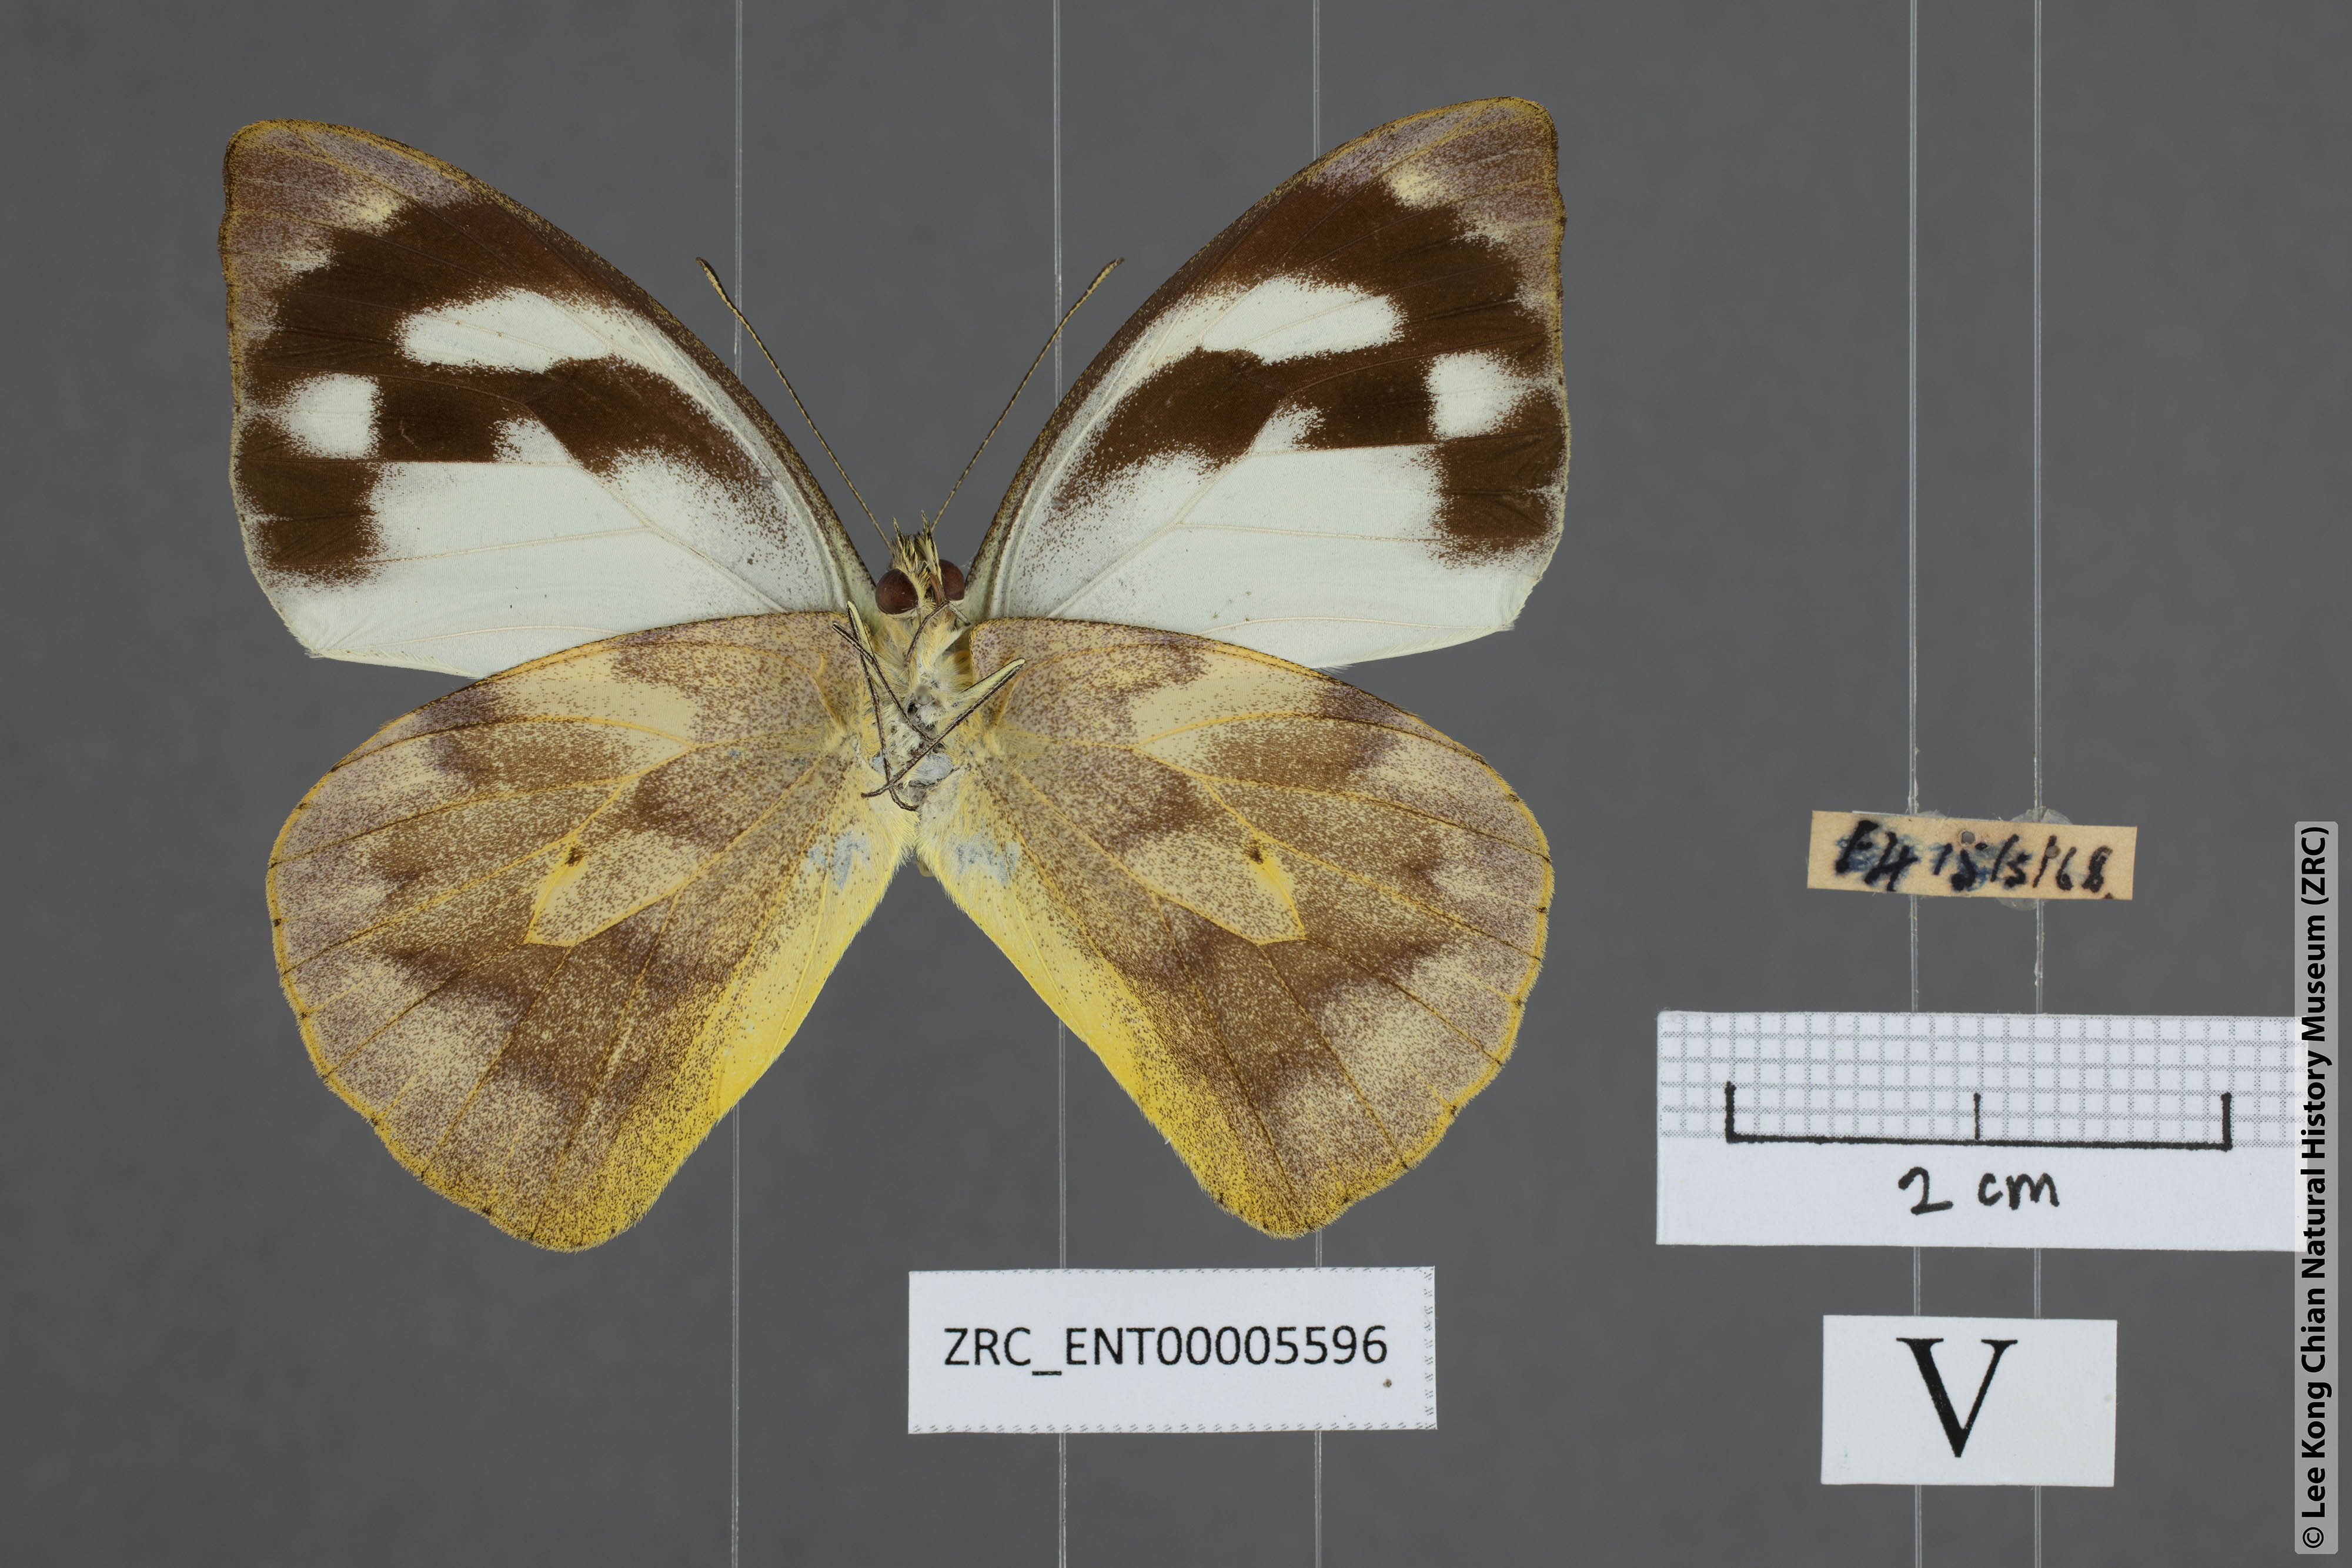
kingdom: Animalia
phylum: Arthropoda
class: Insecta
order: Lepidoptera
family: Pieridae
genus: Appias
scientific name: Appias pandione
